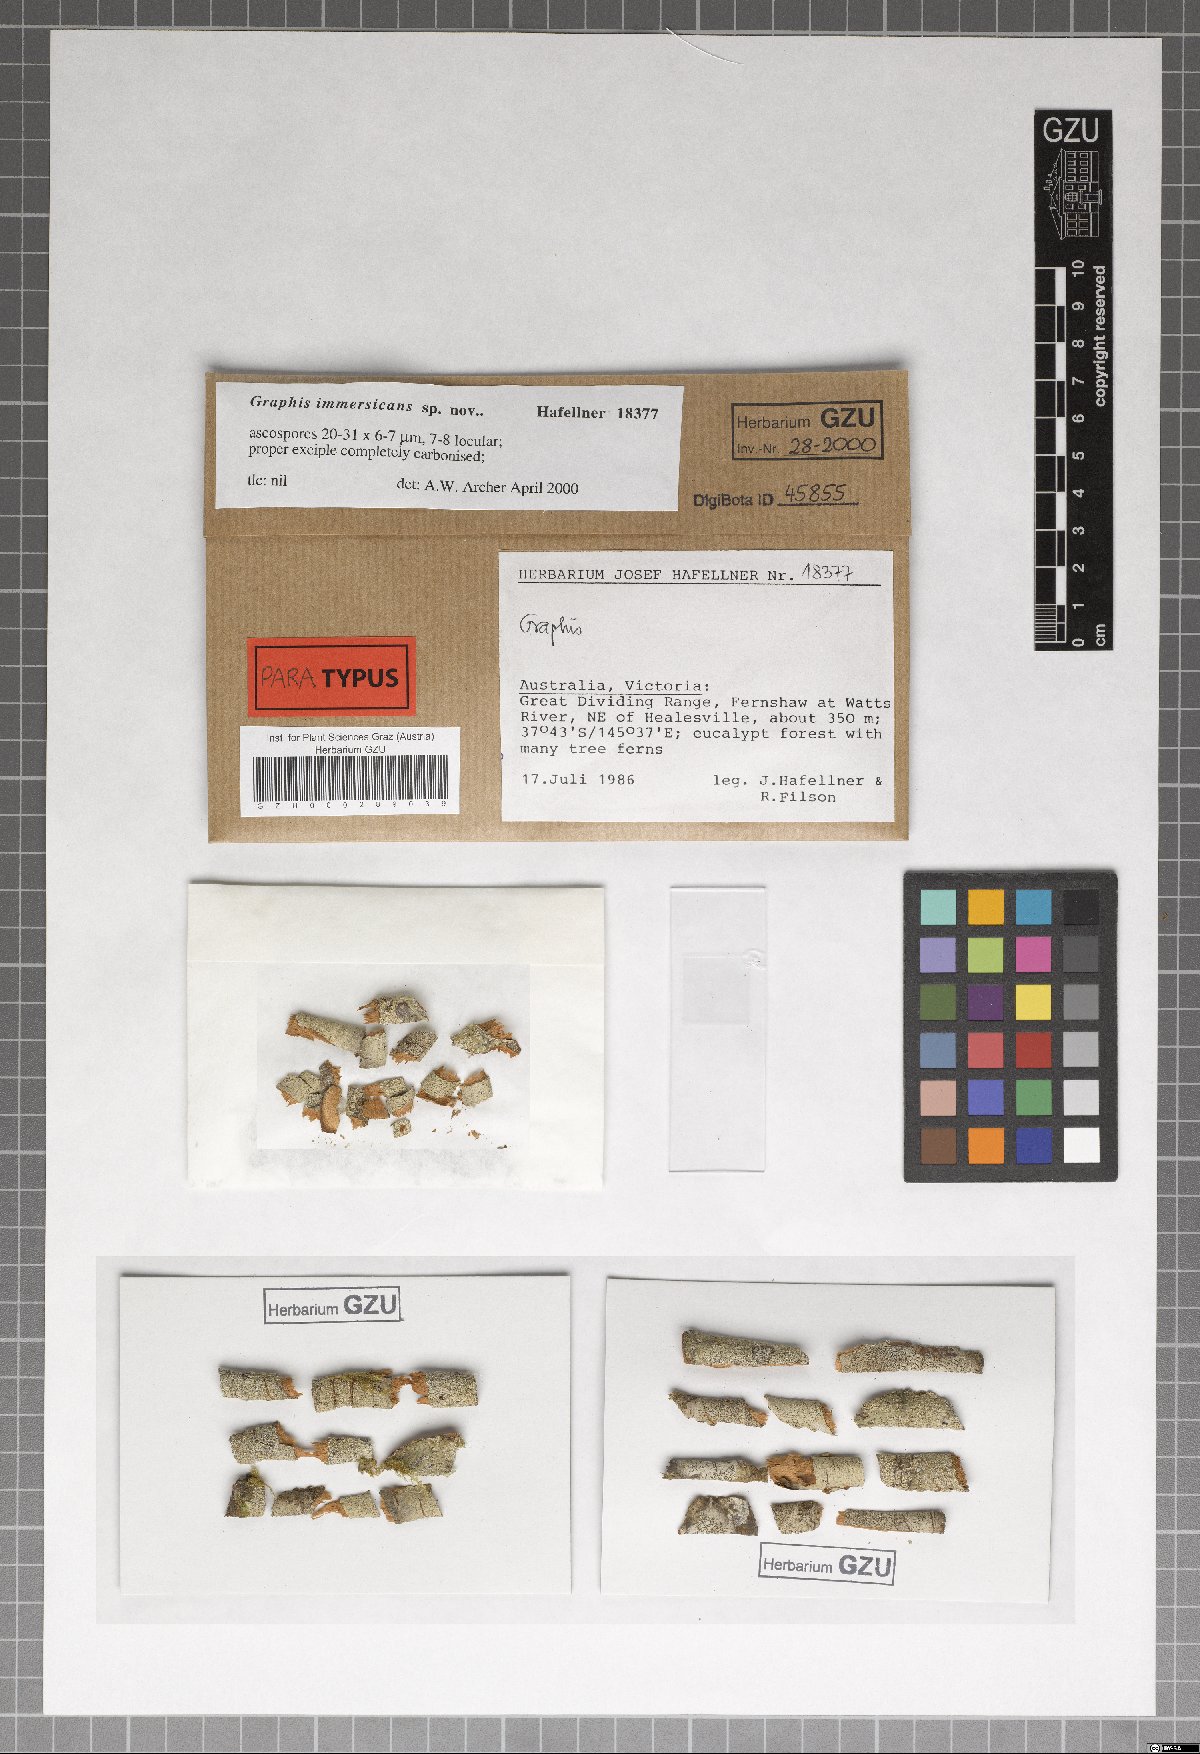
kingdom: Fungi
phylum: Ascomycota
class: Lecanoromycetes
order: Ostropales
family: Graphidaceae
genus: Graphis
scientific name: Graphis immersicans
